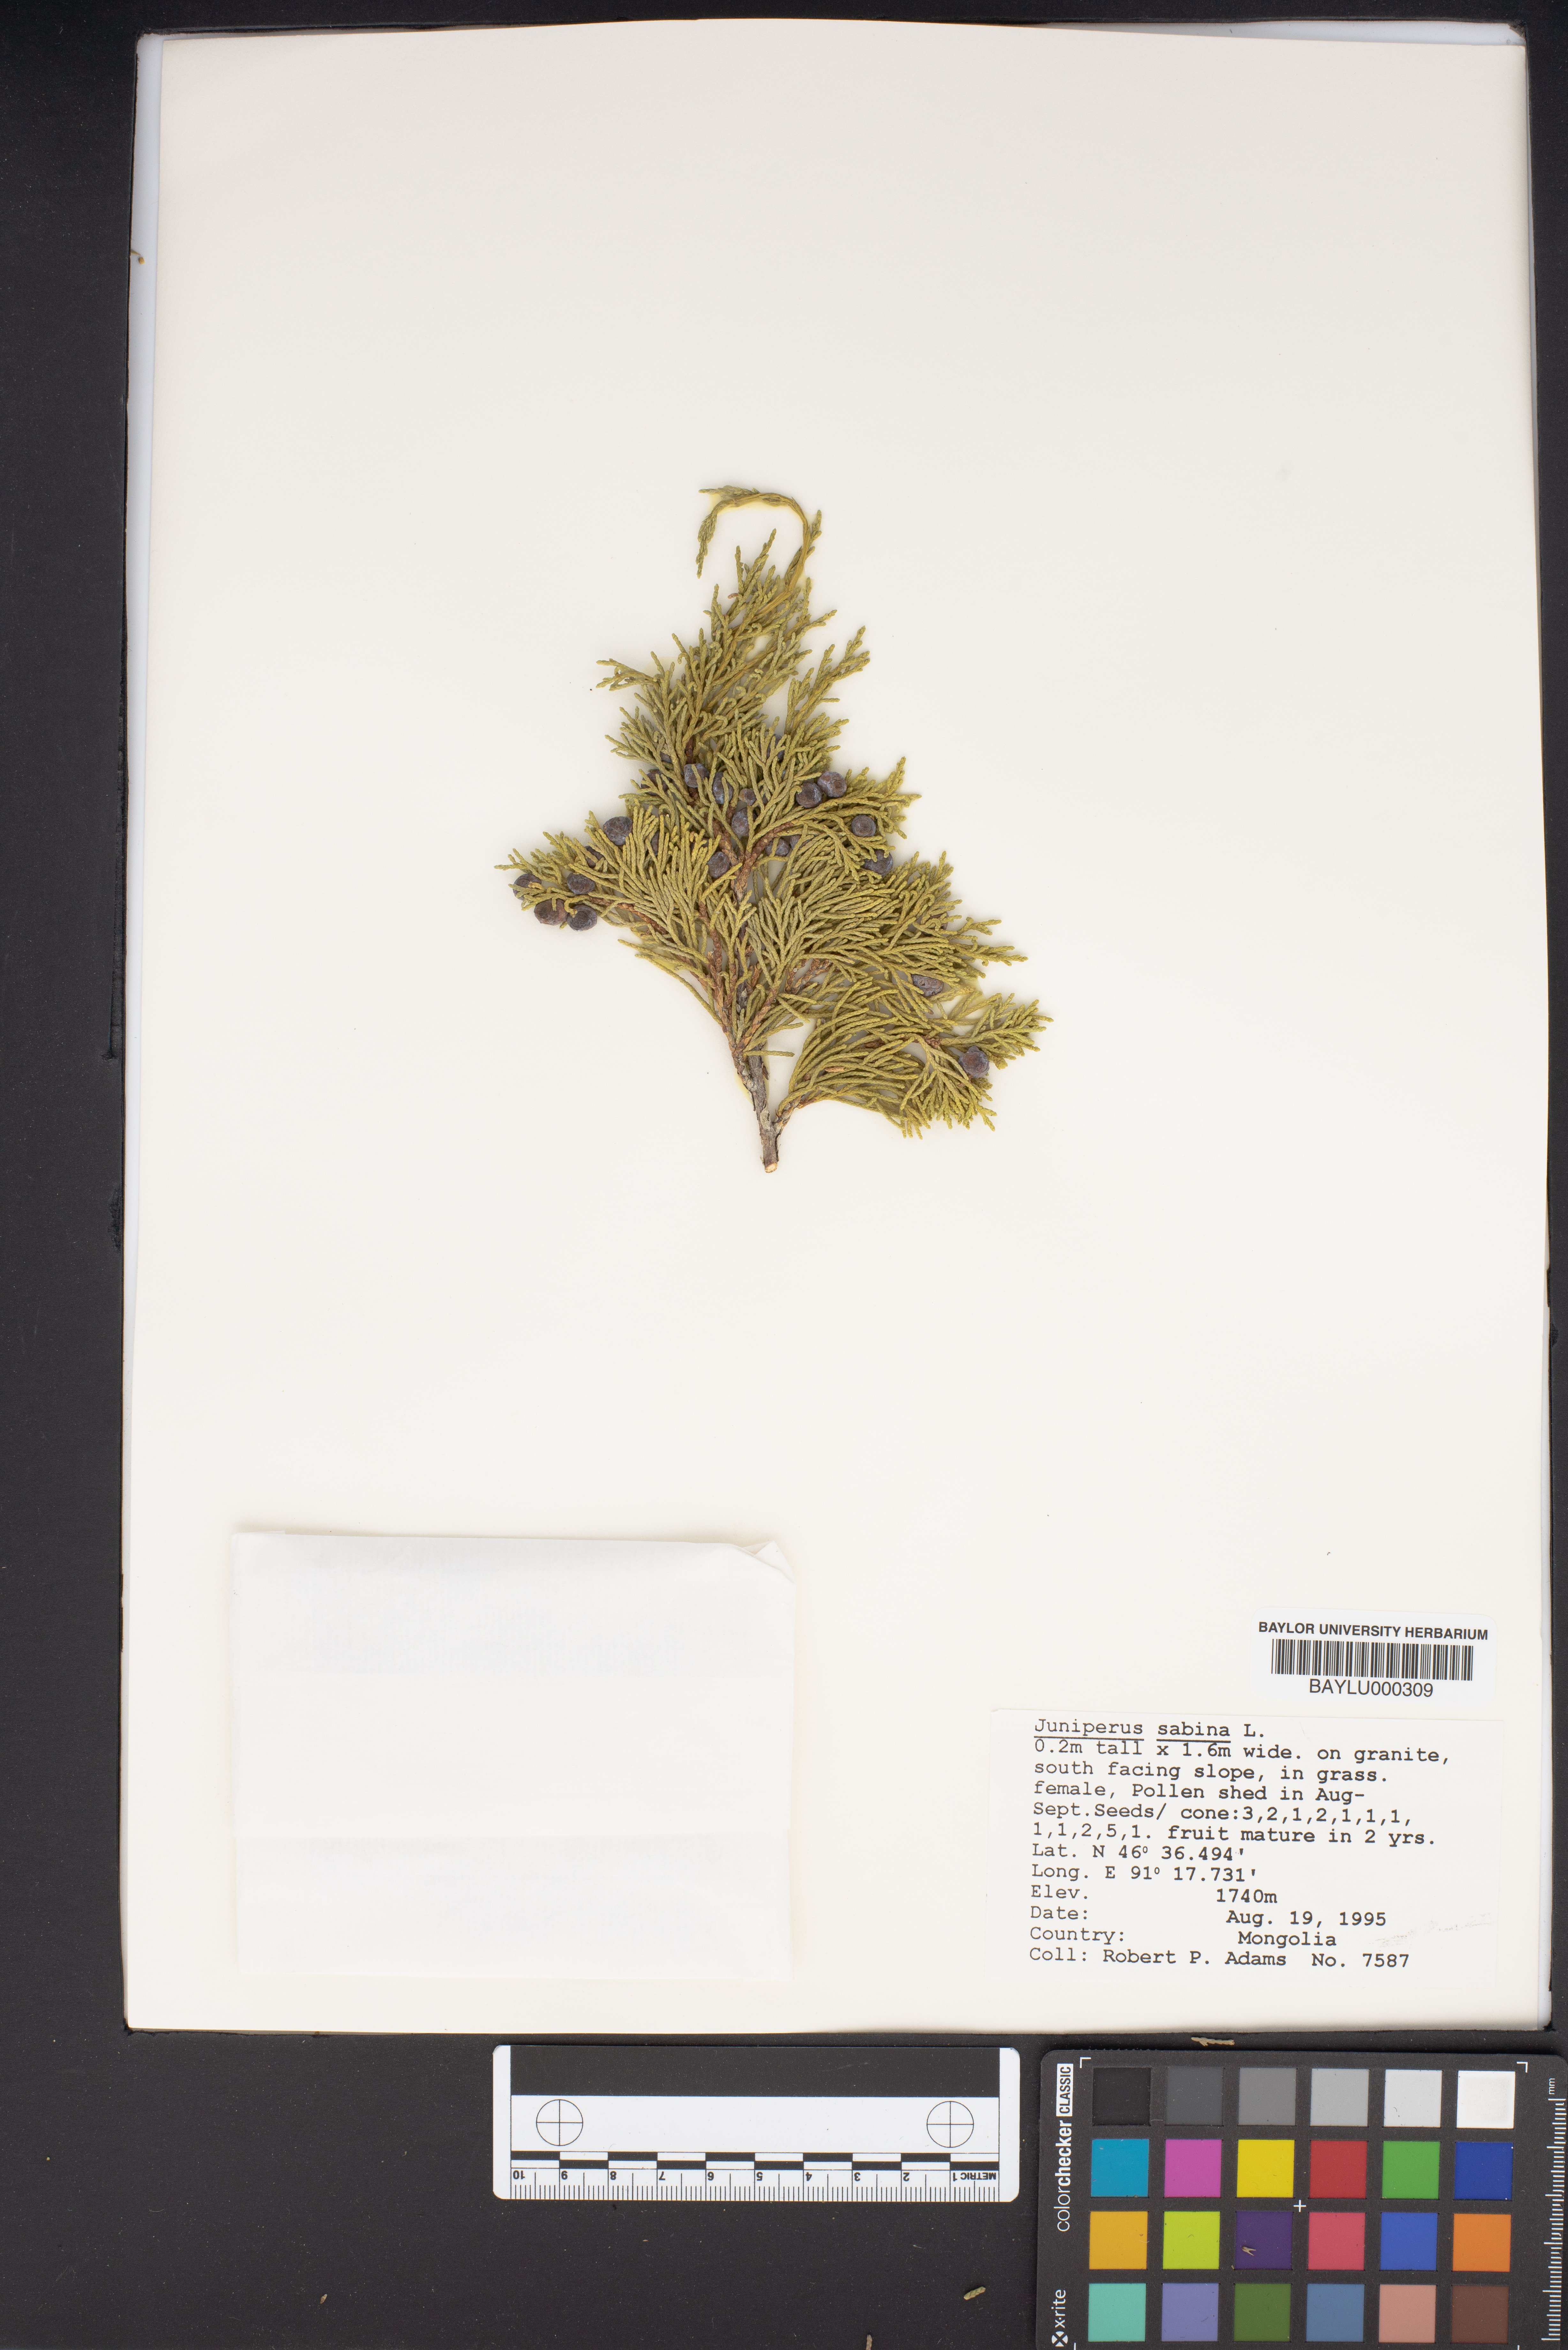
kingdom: Plantae
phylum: Tracheophyta
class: Pinopsida
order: Pinales
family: Cupressaceae
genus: Juniperus
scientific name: Juniperus sabina
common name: Savin
